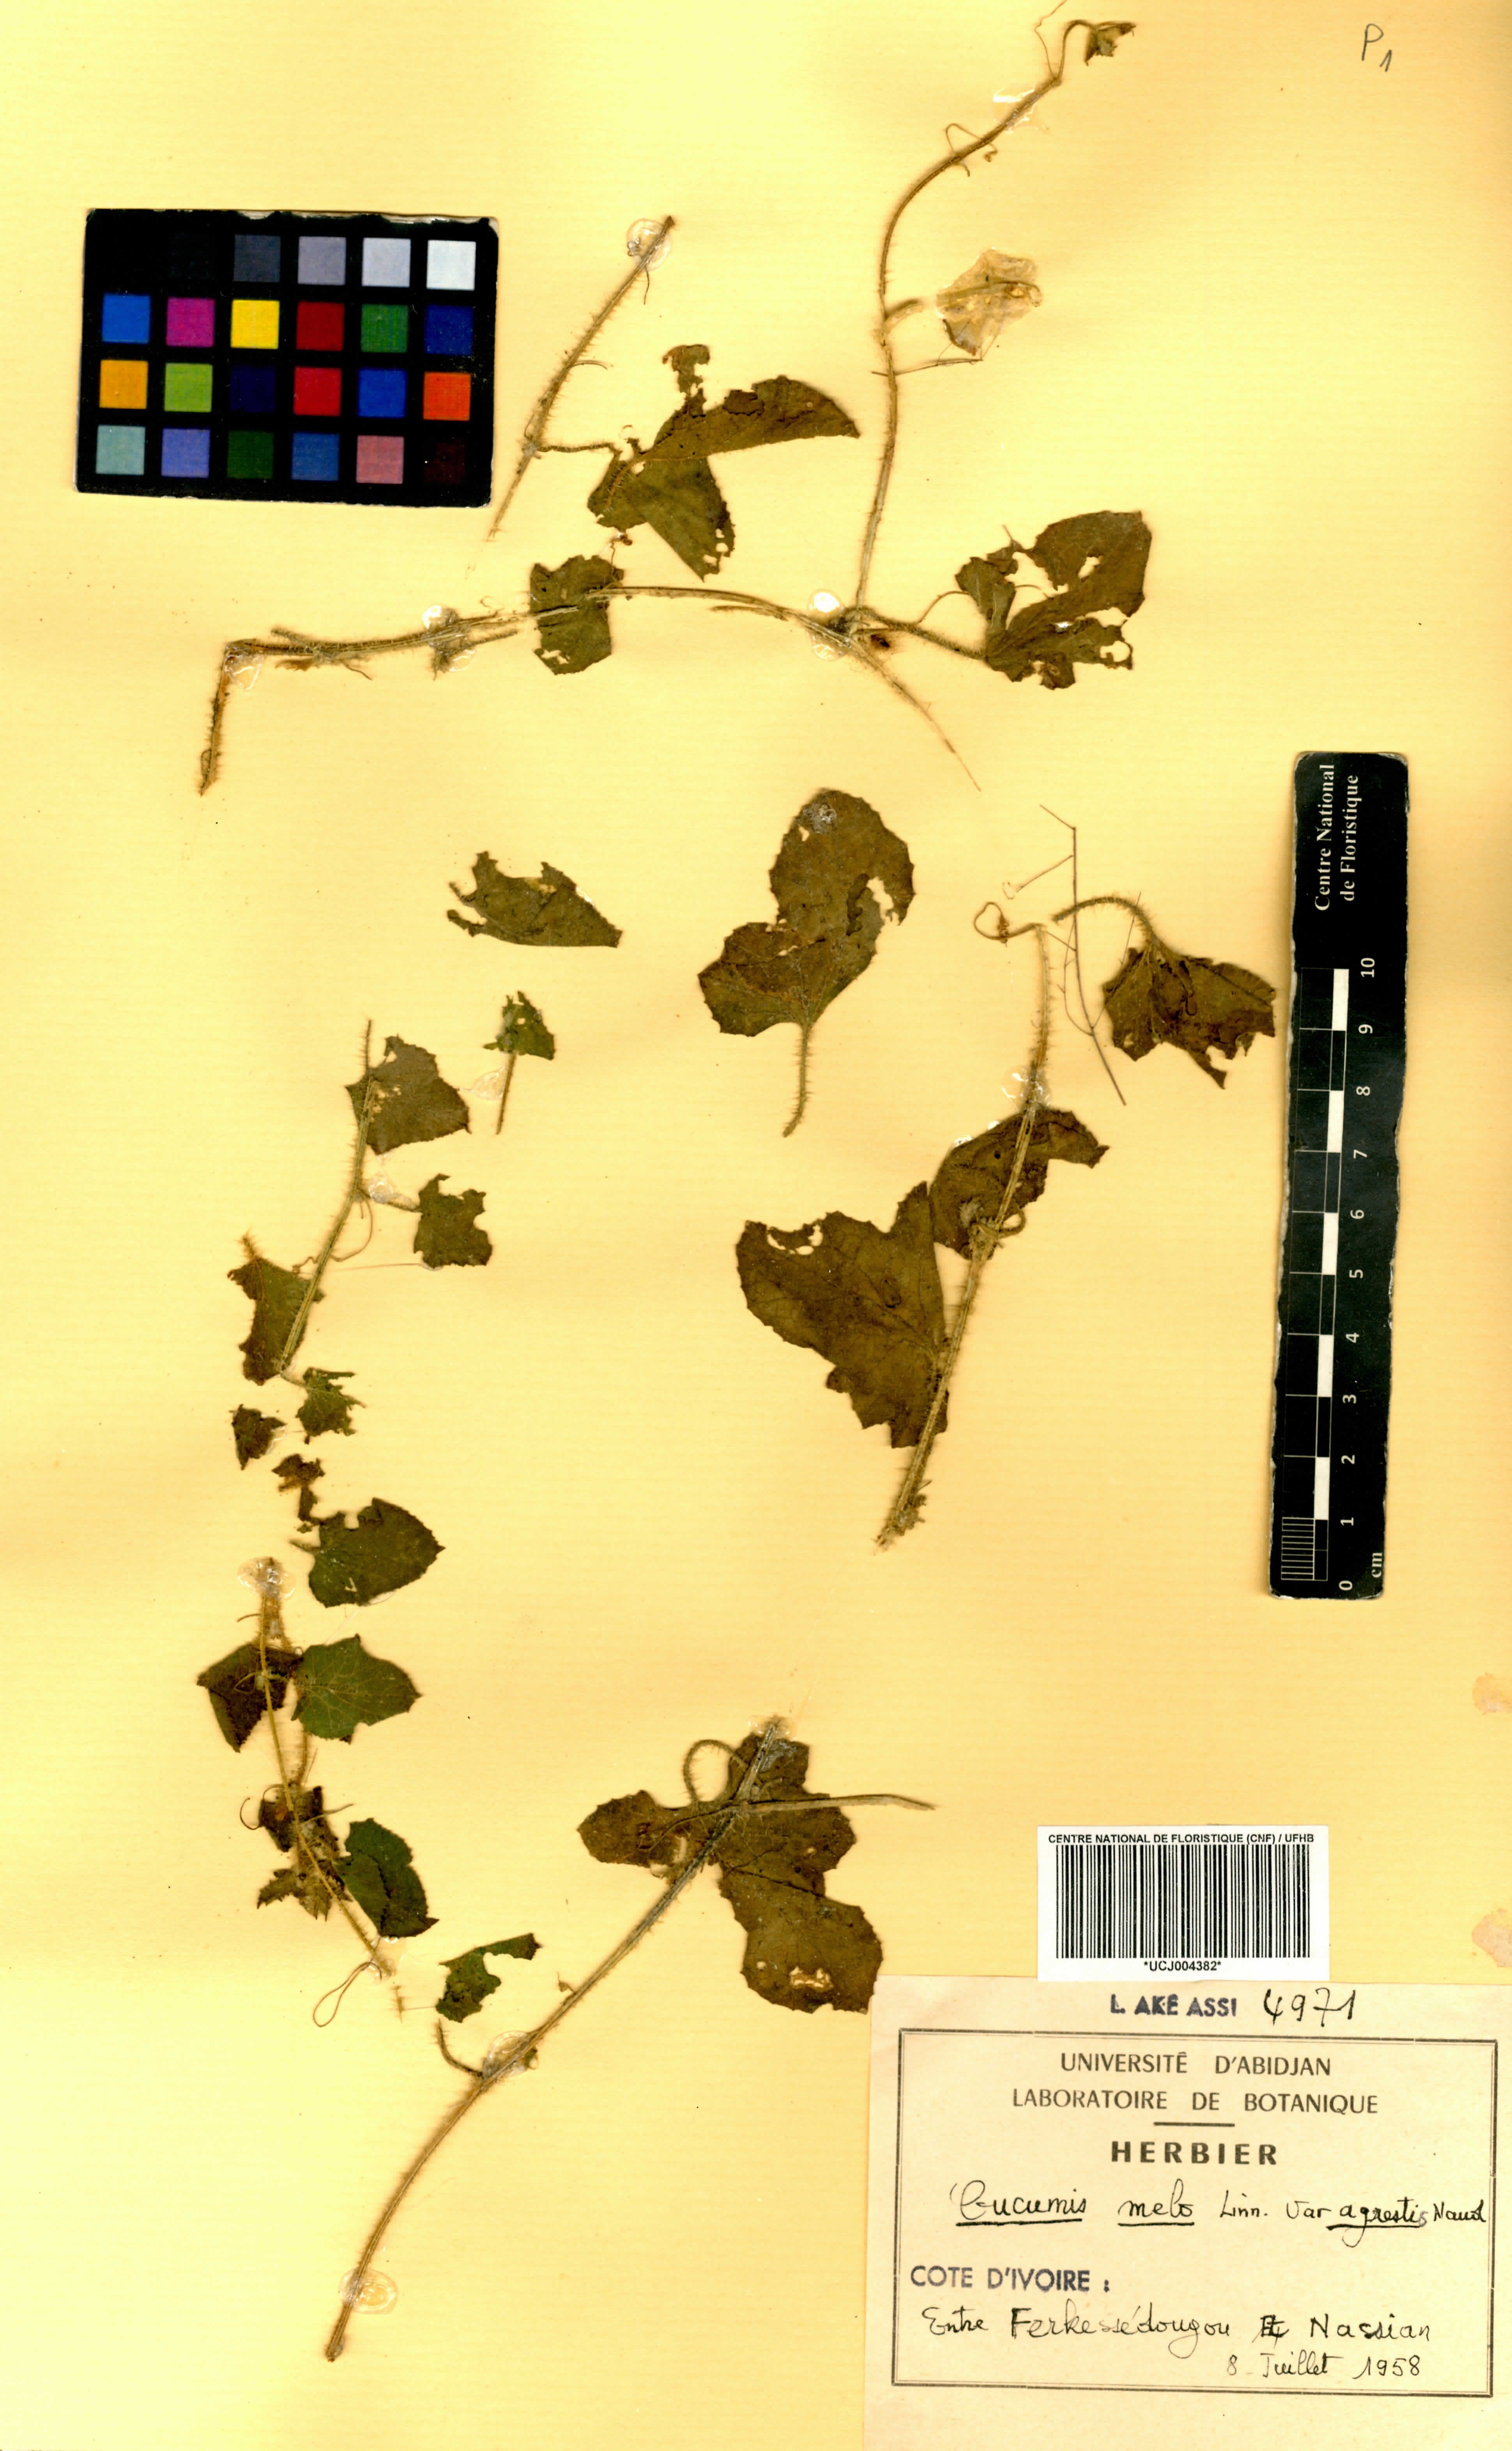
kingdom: Plantae
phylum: Tracheophyta
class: Magnoliopsida
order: Cucurbitales
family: Cucurbitaceae
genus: Cucumis
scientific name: Cucumis melo
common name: Melon
